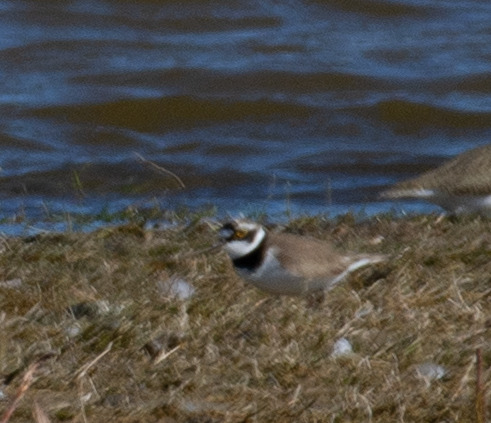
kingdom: Animalia
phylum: Chordata
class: Aves
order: Charadriiformes
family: Charadriidae
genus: Charadrius
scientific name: Charadrius dubius
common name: Lille præstekrave
